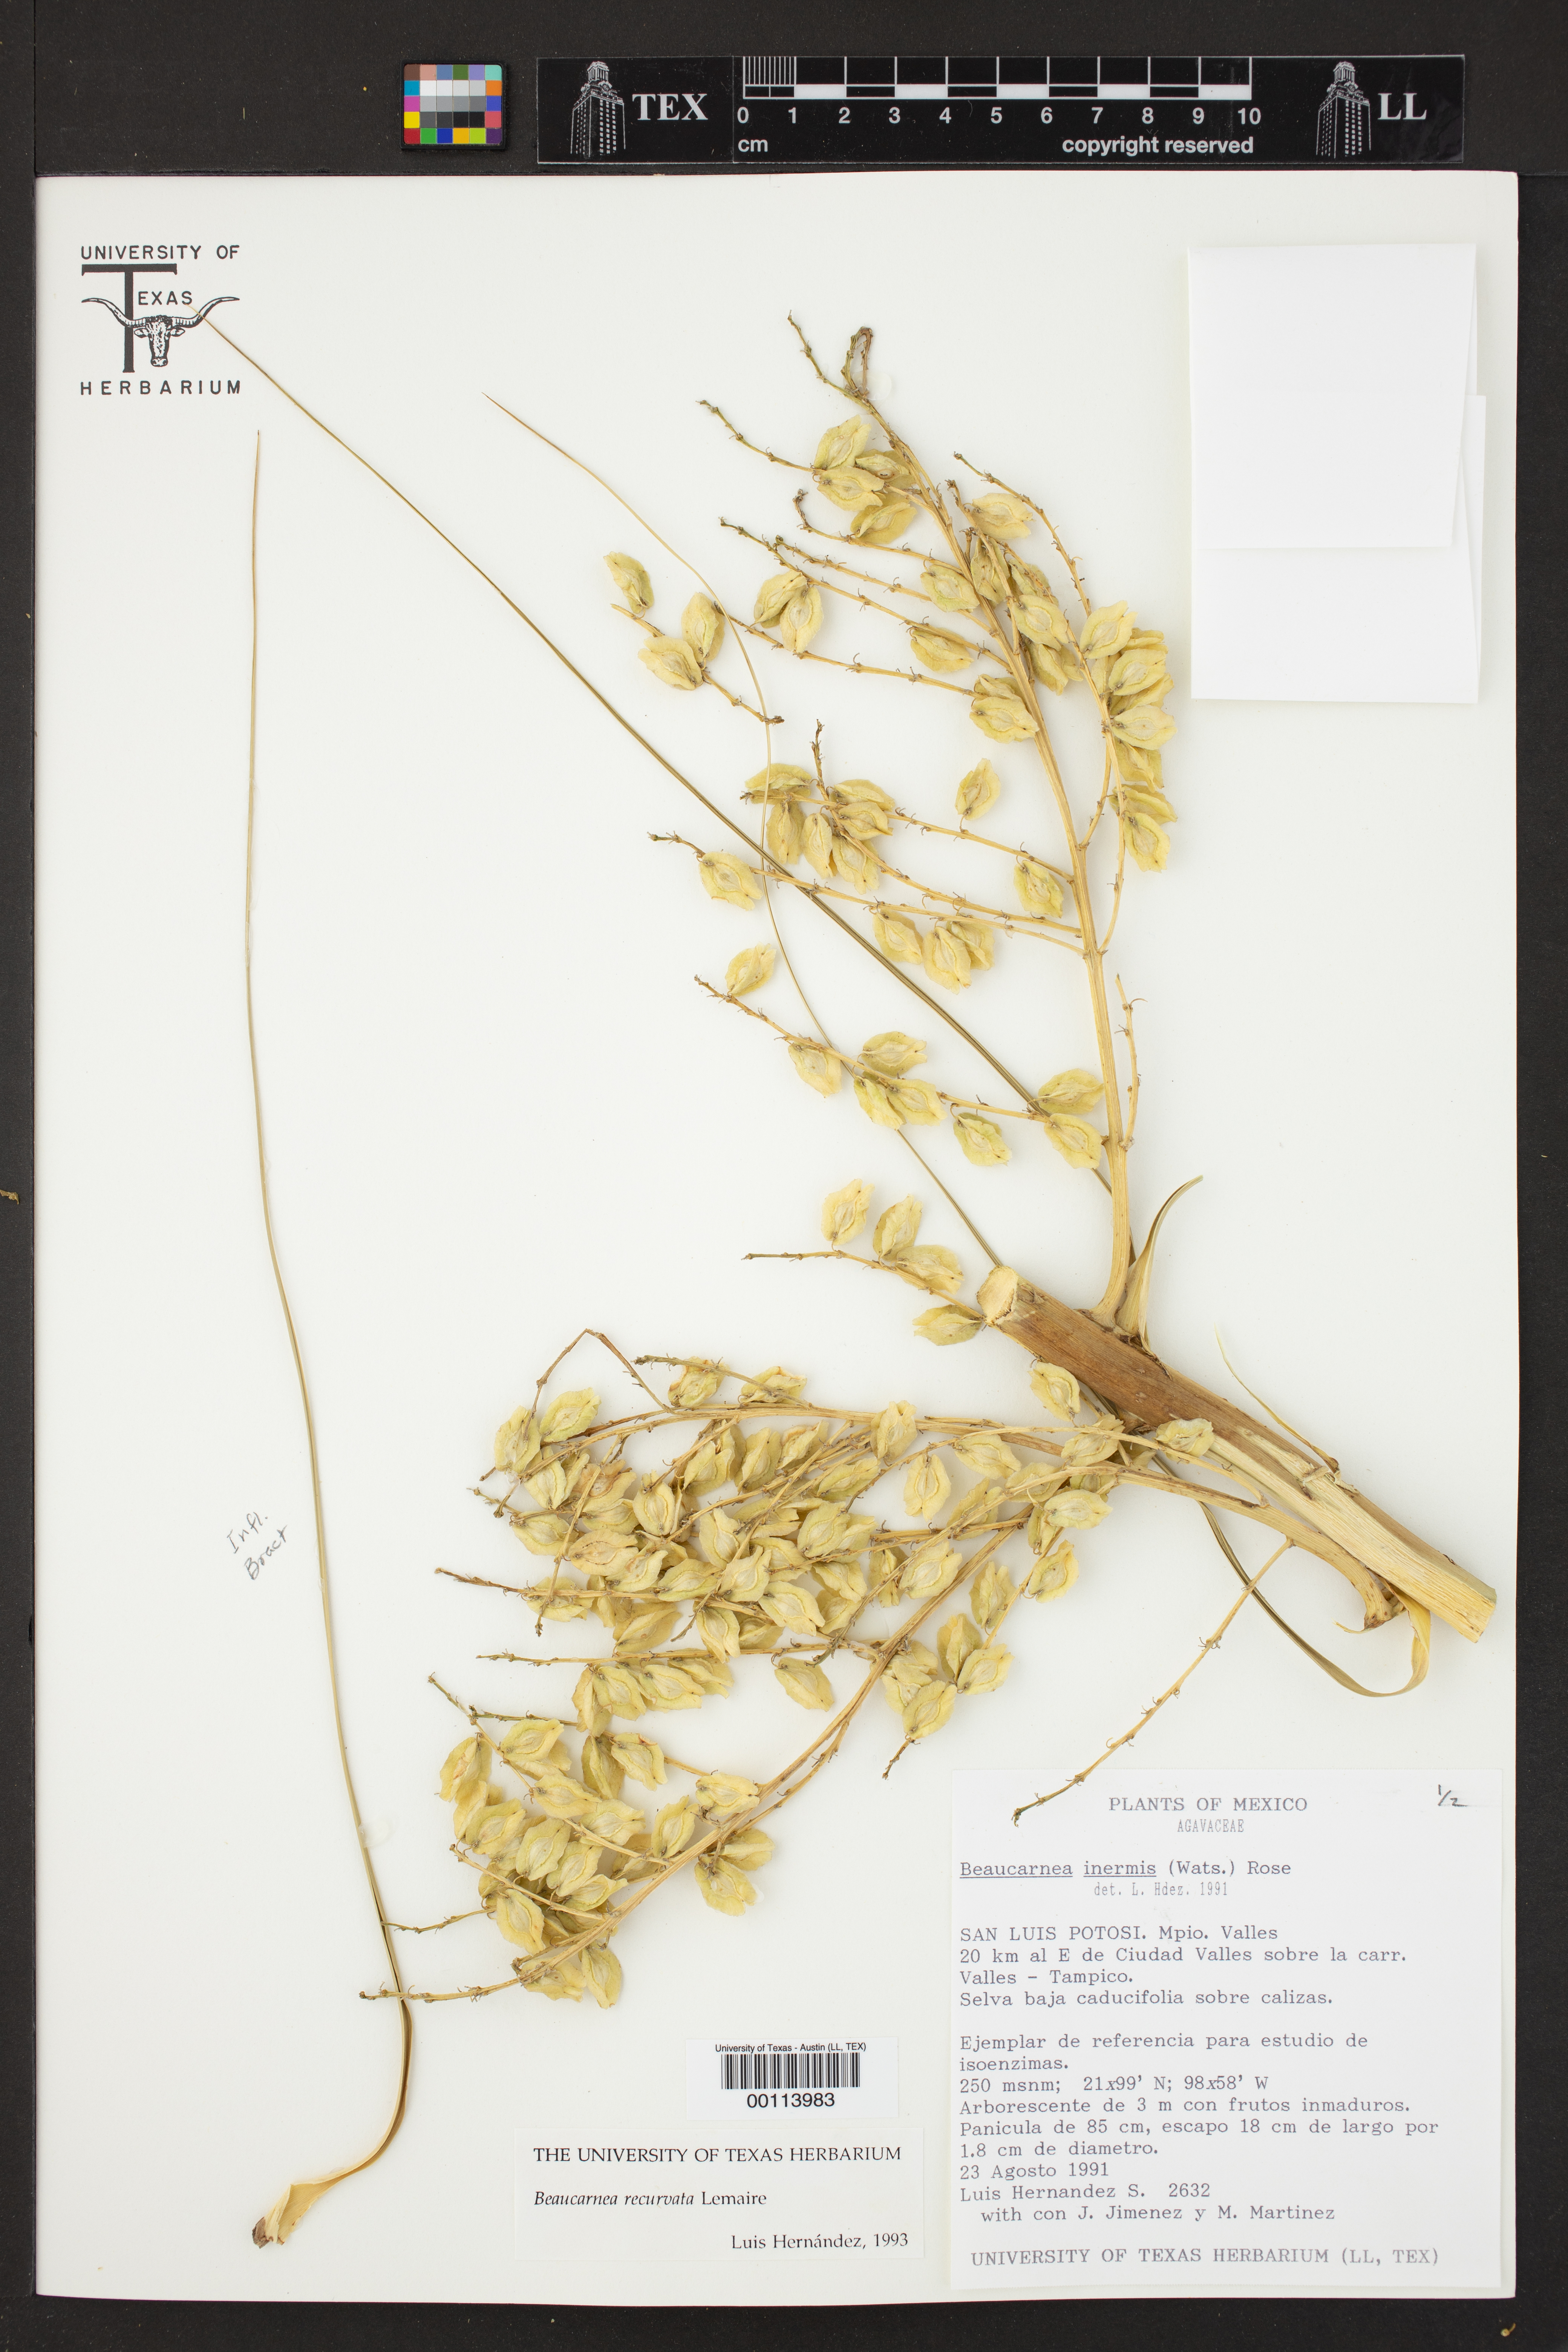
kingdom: Plantae
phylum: Tracheophyta
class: Liliopsida
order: Asparagales
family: Asparagaceae
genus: Beaucarnea
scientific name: Beaucarnea recurvata
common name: Stripy  ponytail
